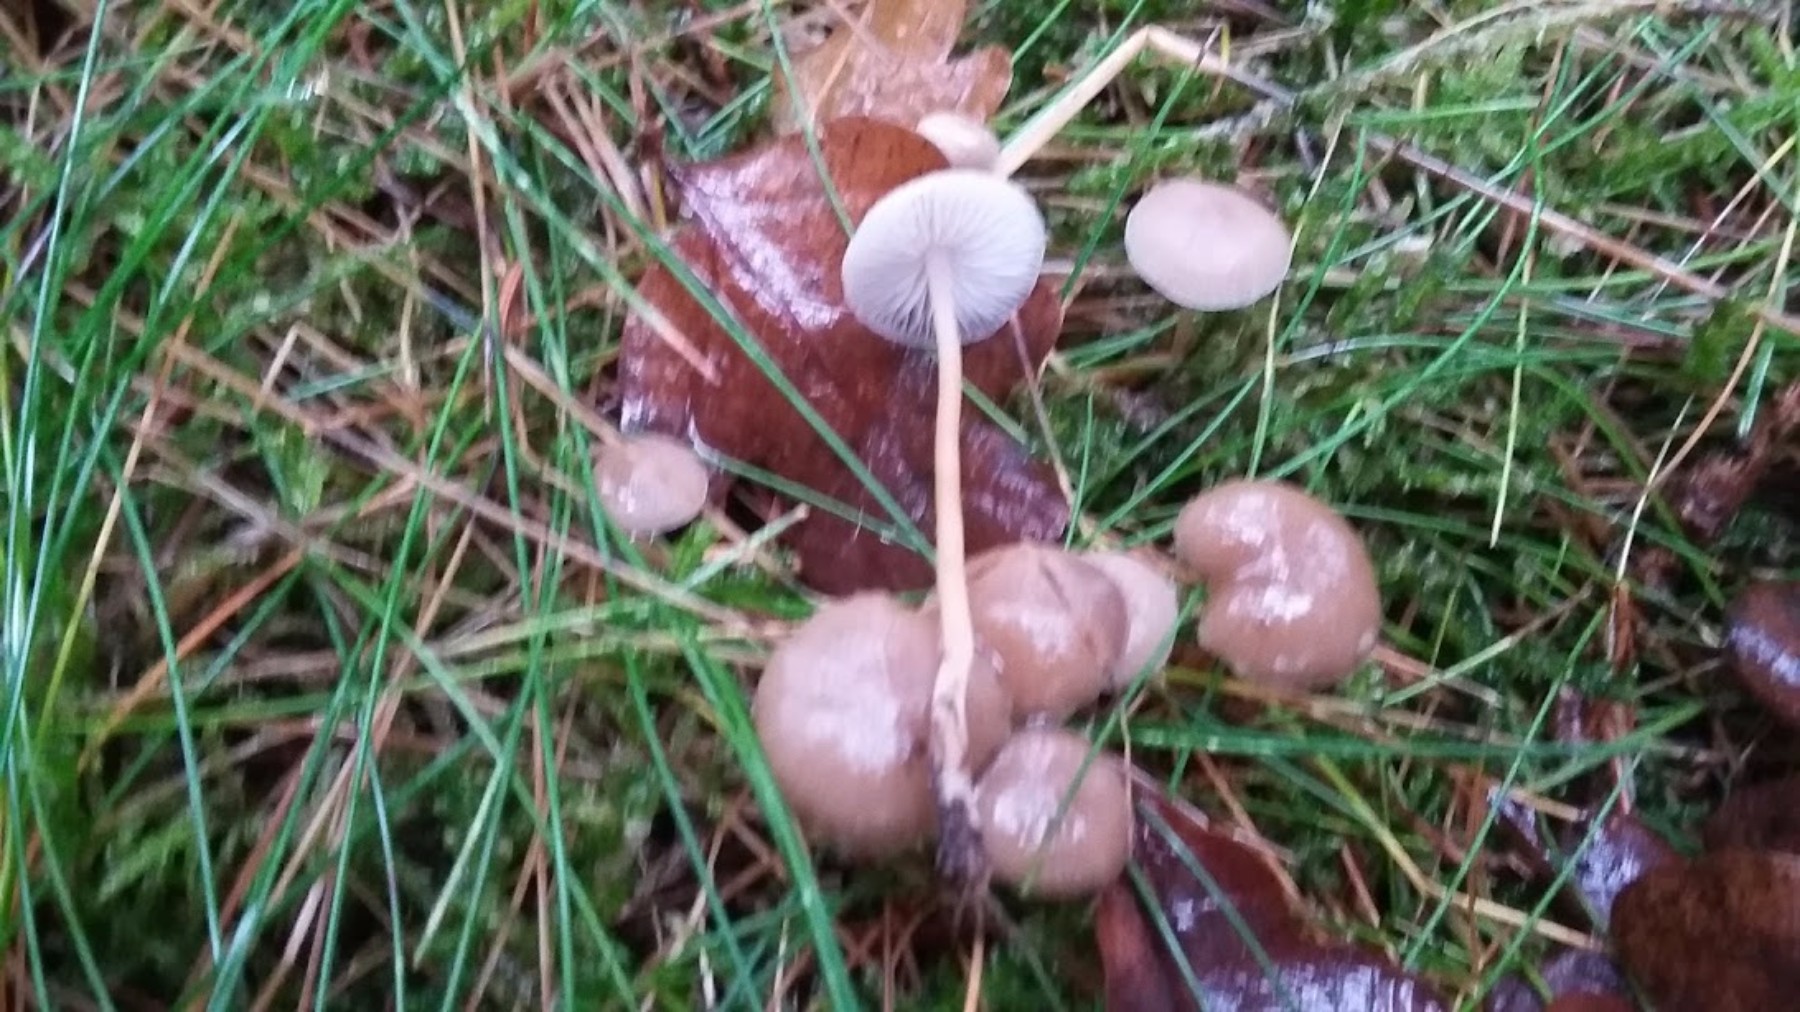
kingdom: Fungi
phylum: Basidiomycota
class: Agaricomycetes
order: Agaricales
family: Physalacriaceae
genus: Strobilurus
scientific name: Strobilurus esculentus
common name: gran-koglehat
